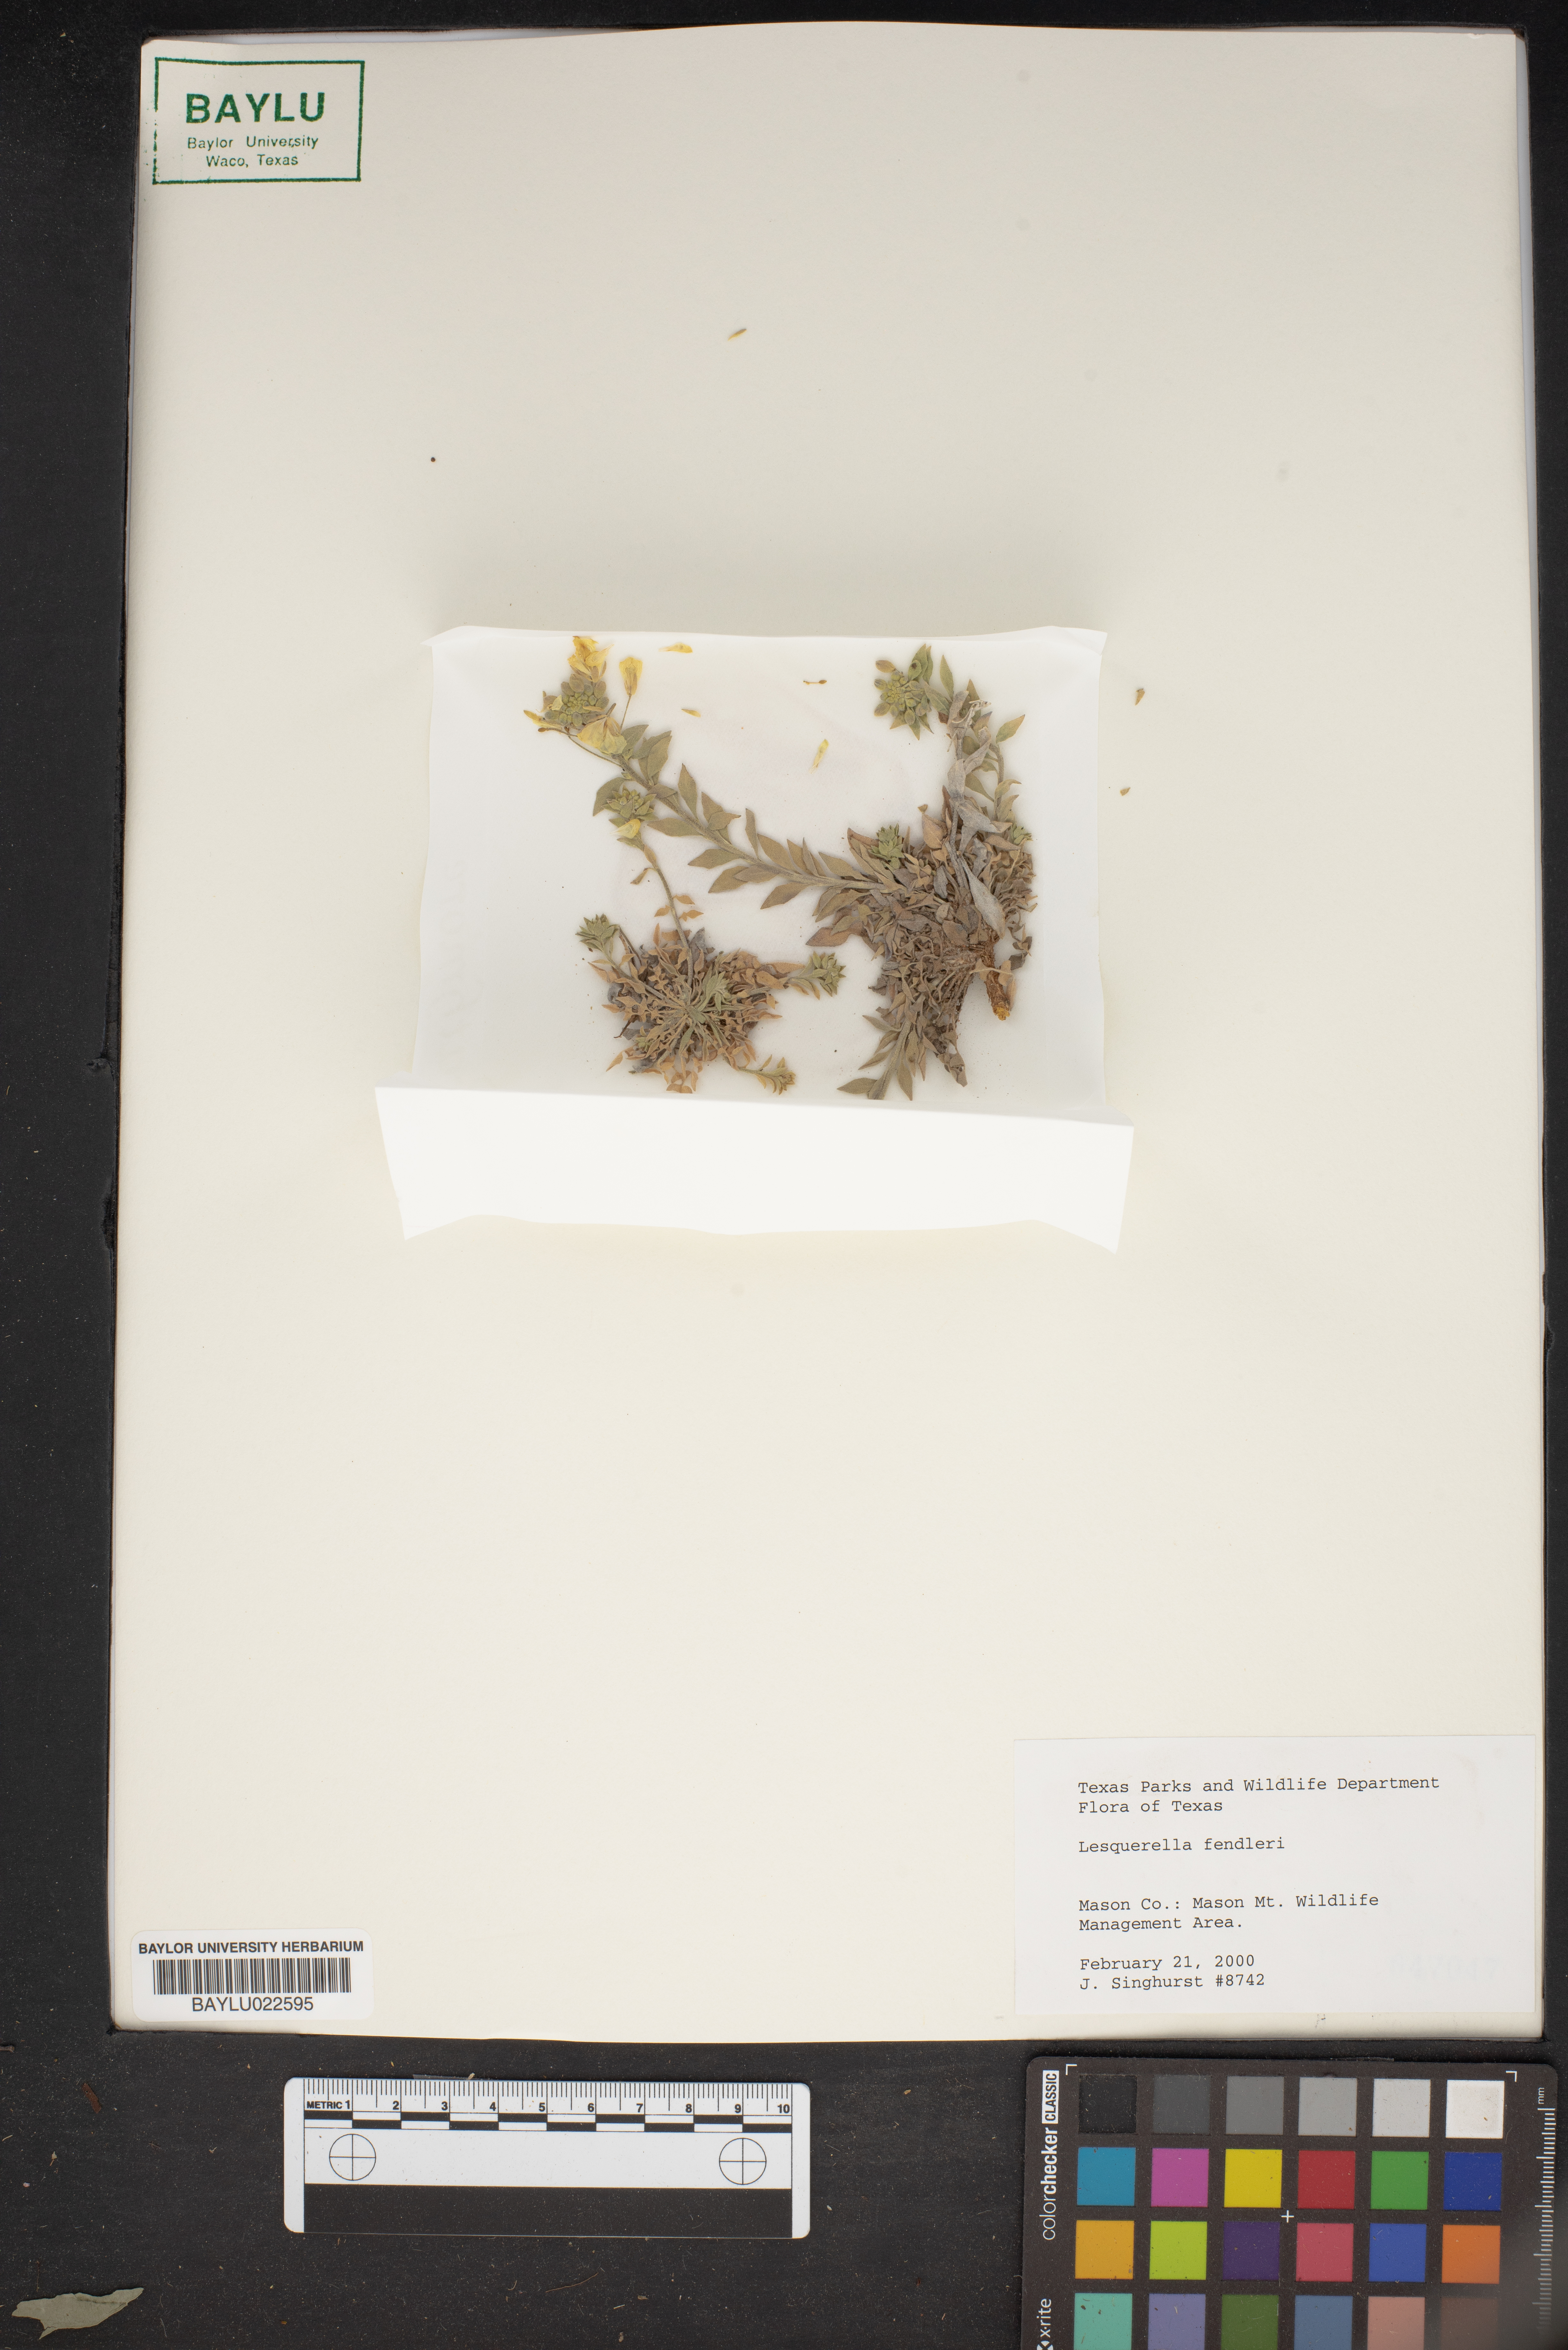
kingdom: Plantae
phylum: Tracheophyta
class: Magnoliopsida
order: Brassicales
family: Brassicaceae
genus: Physaria
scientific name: Physaria fendleri
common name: Fendler's bladderpod
